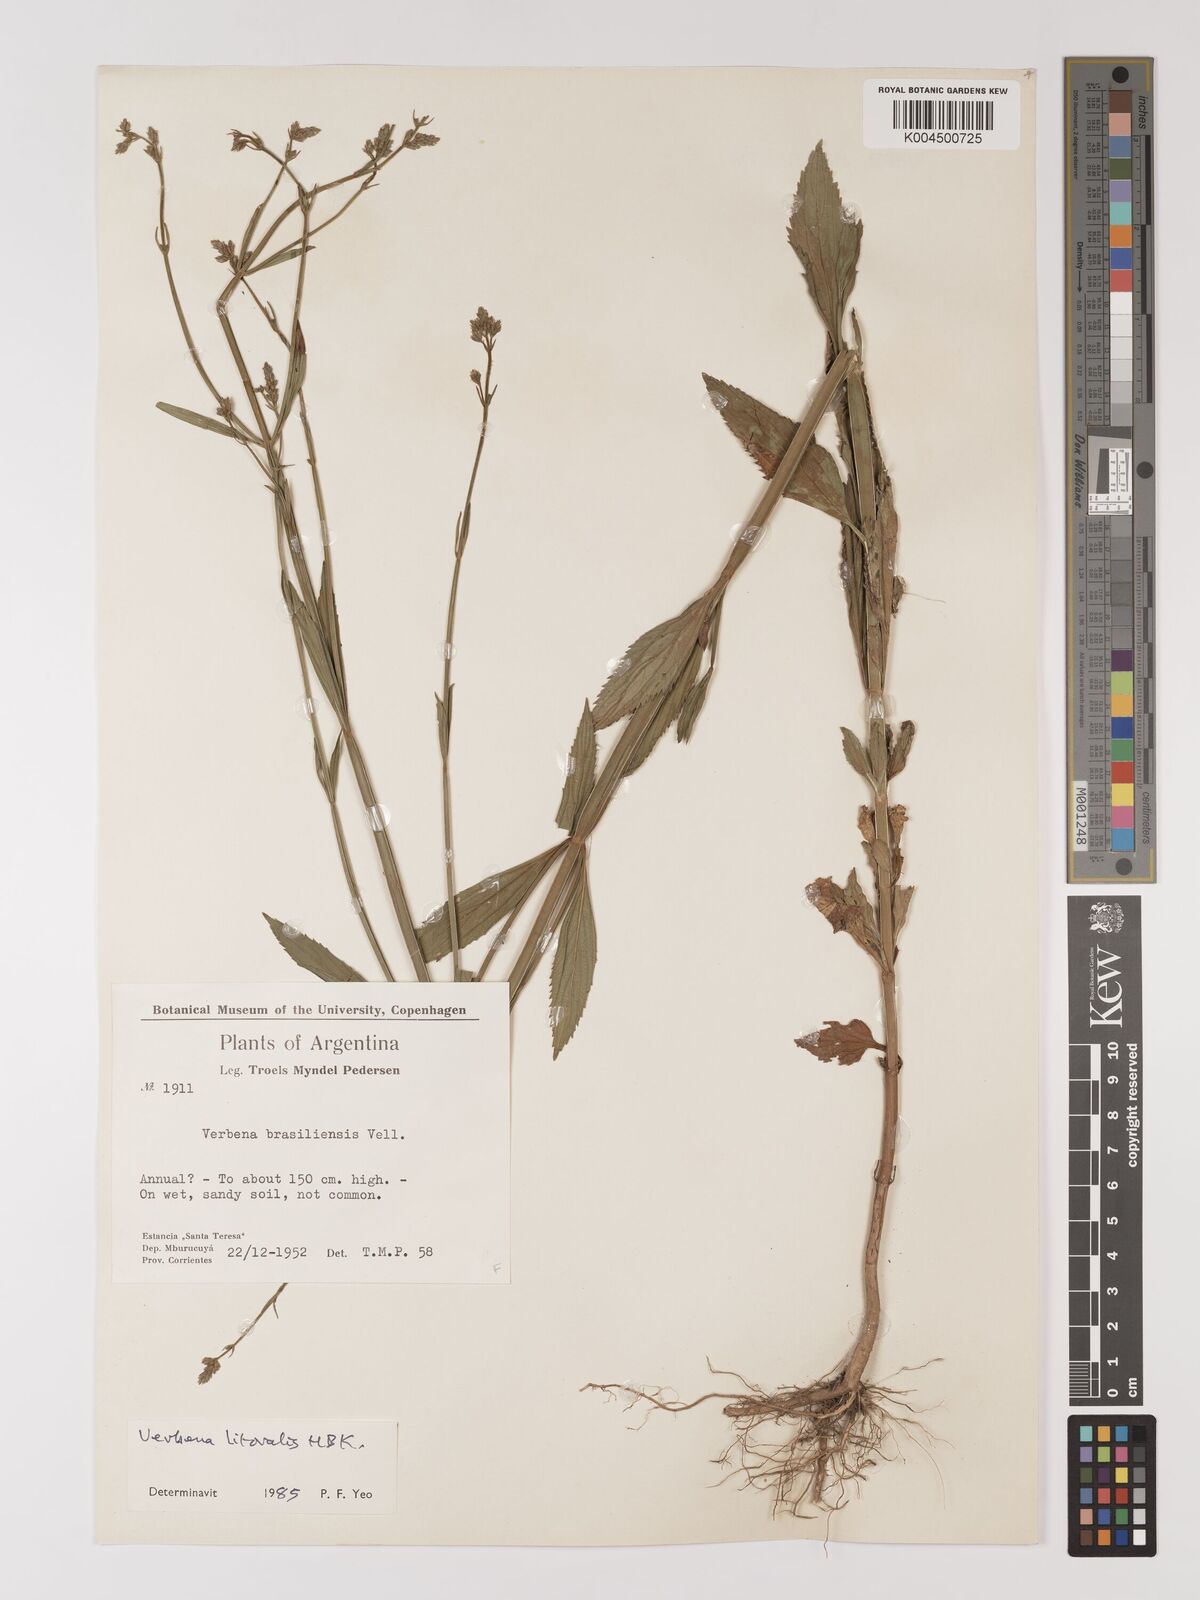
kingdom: Plantae
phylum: Tracheophyta
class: Magnoliopsida
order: Lamiales
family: Verbenaceae
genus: Verbena
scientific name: Verbena litoralis
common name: Seashore vervain
